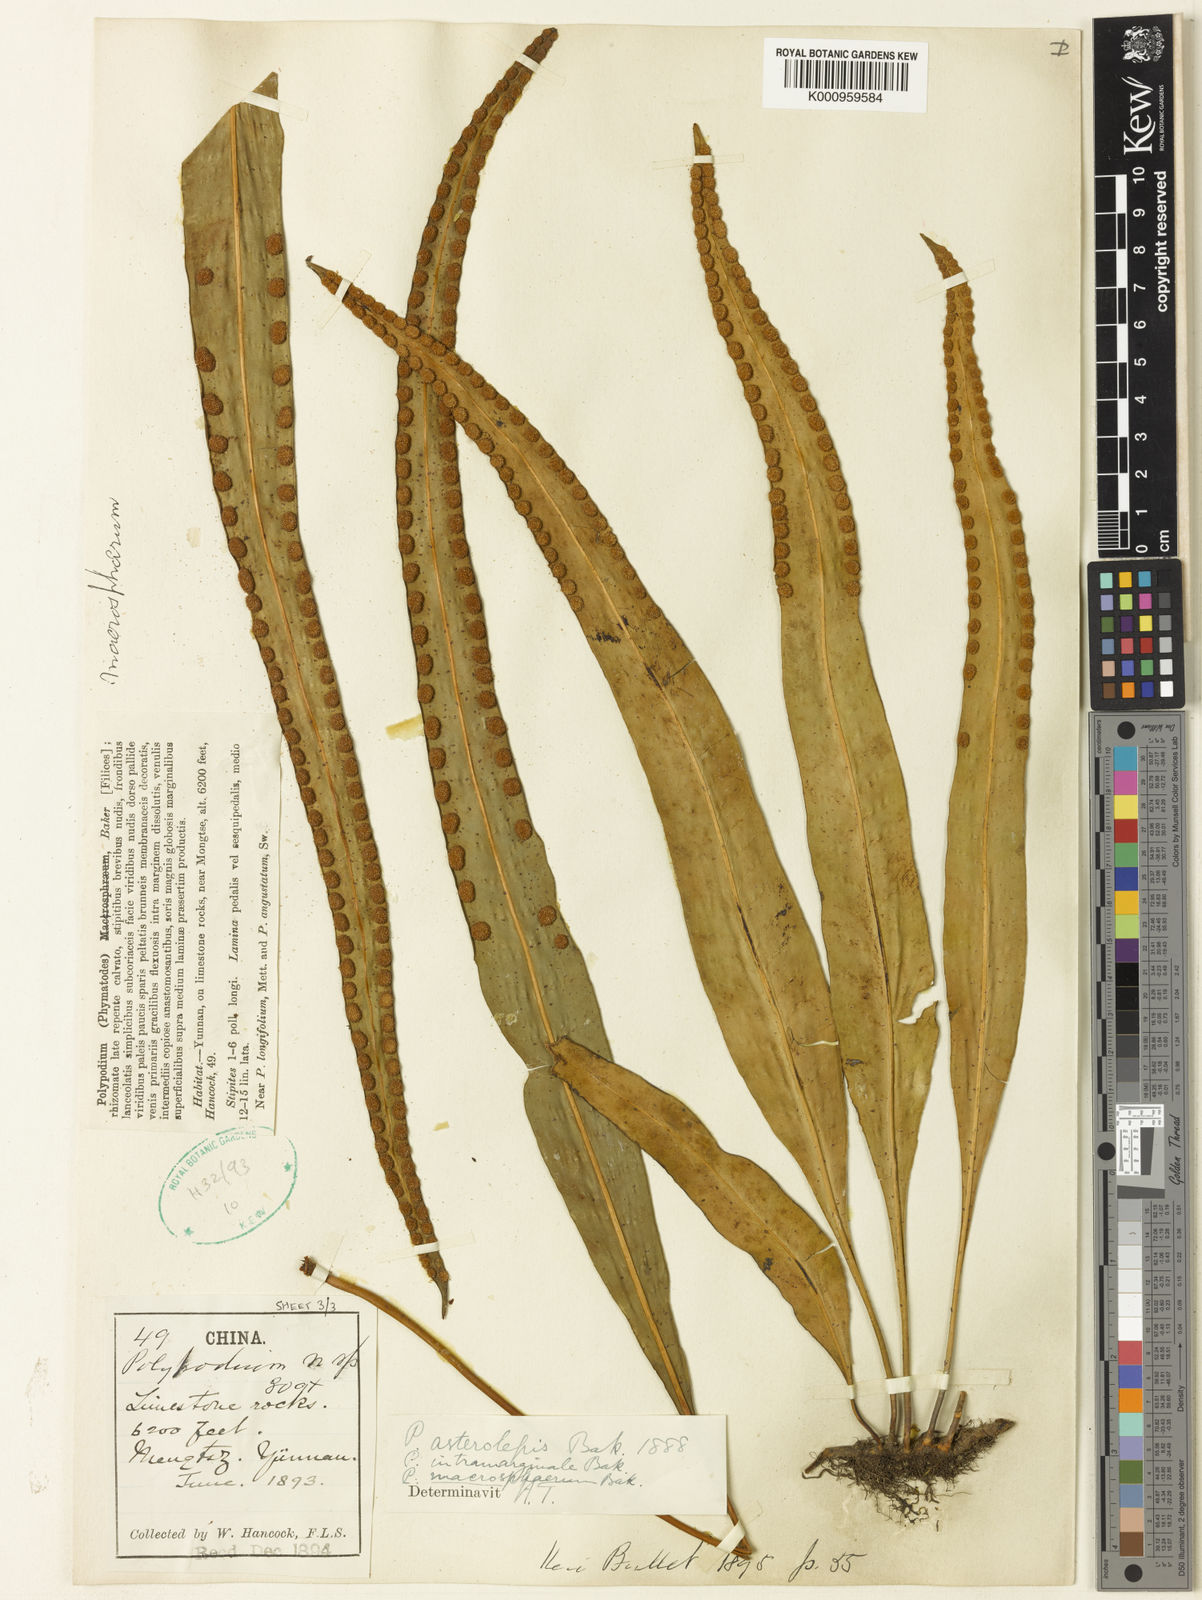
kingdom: Plantae
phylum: Tracheophyta
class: Polypodiopsida
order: Polypodiales
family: Polypodiaceae
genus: Lepisorus
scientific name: Lepisorus macrosphaerus
